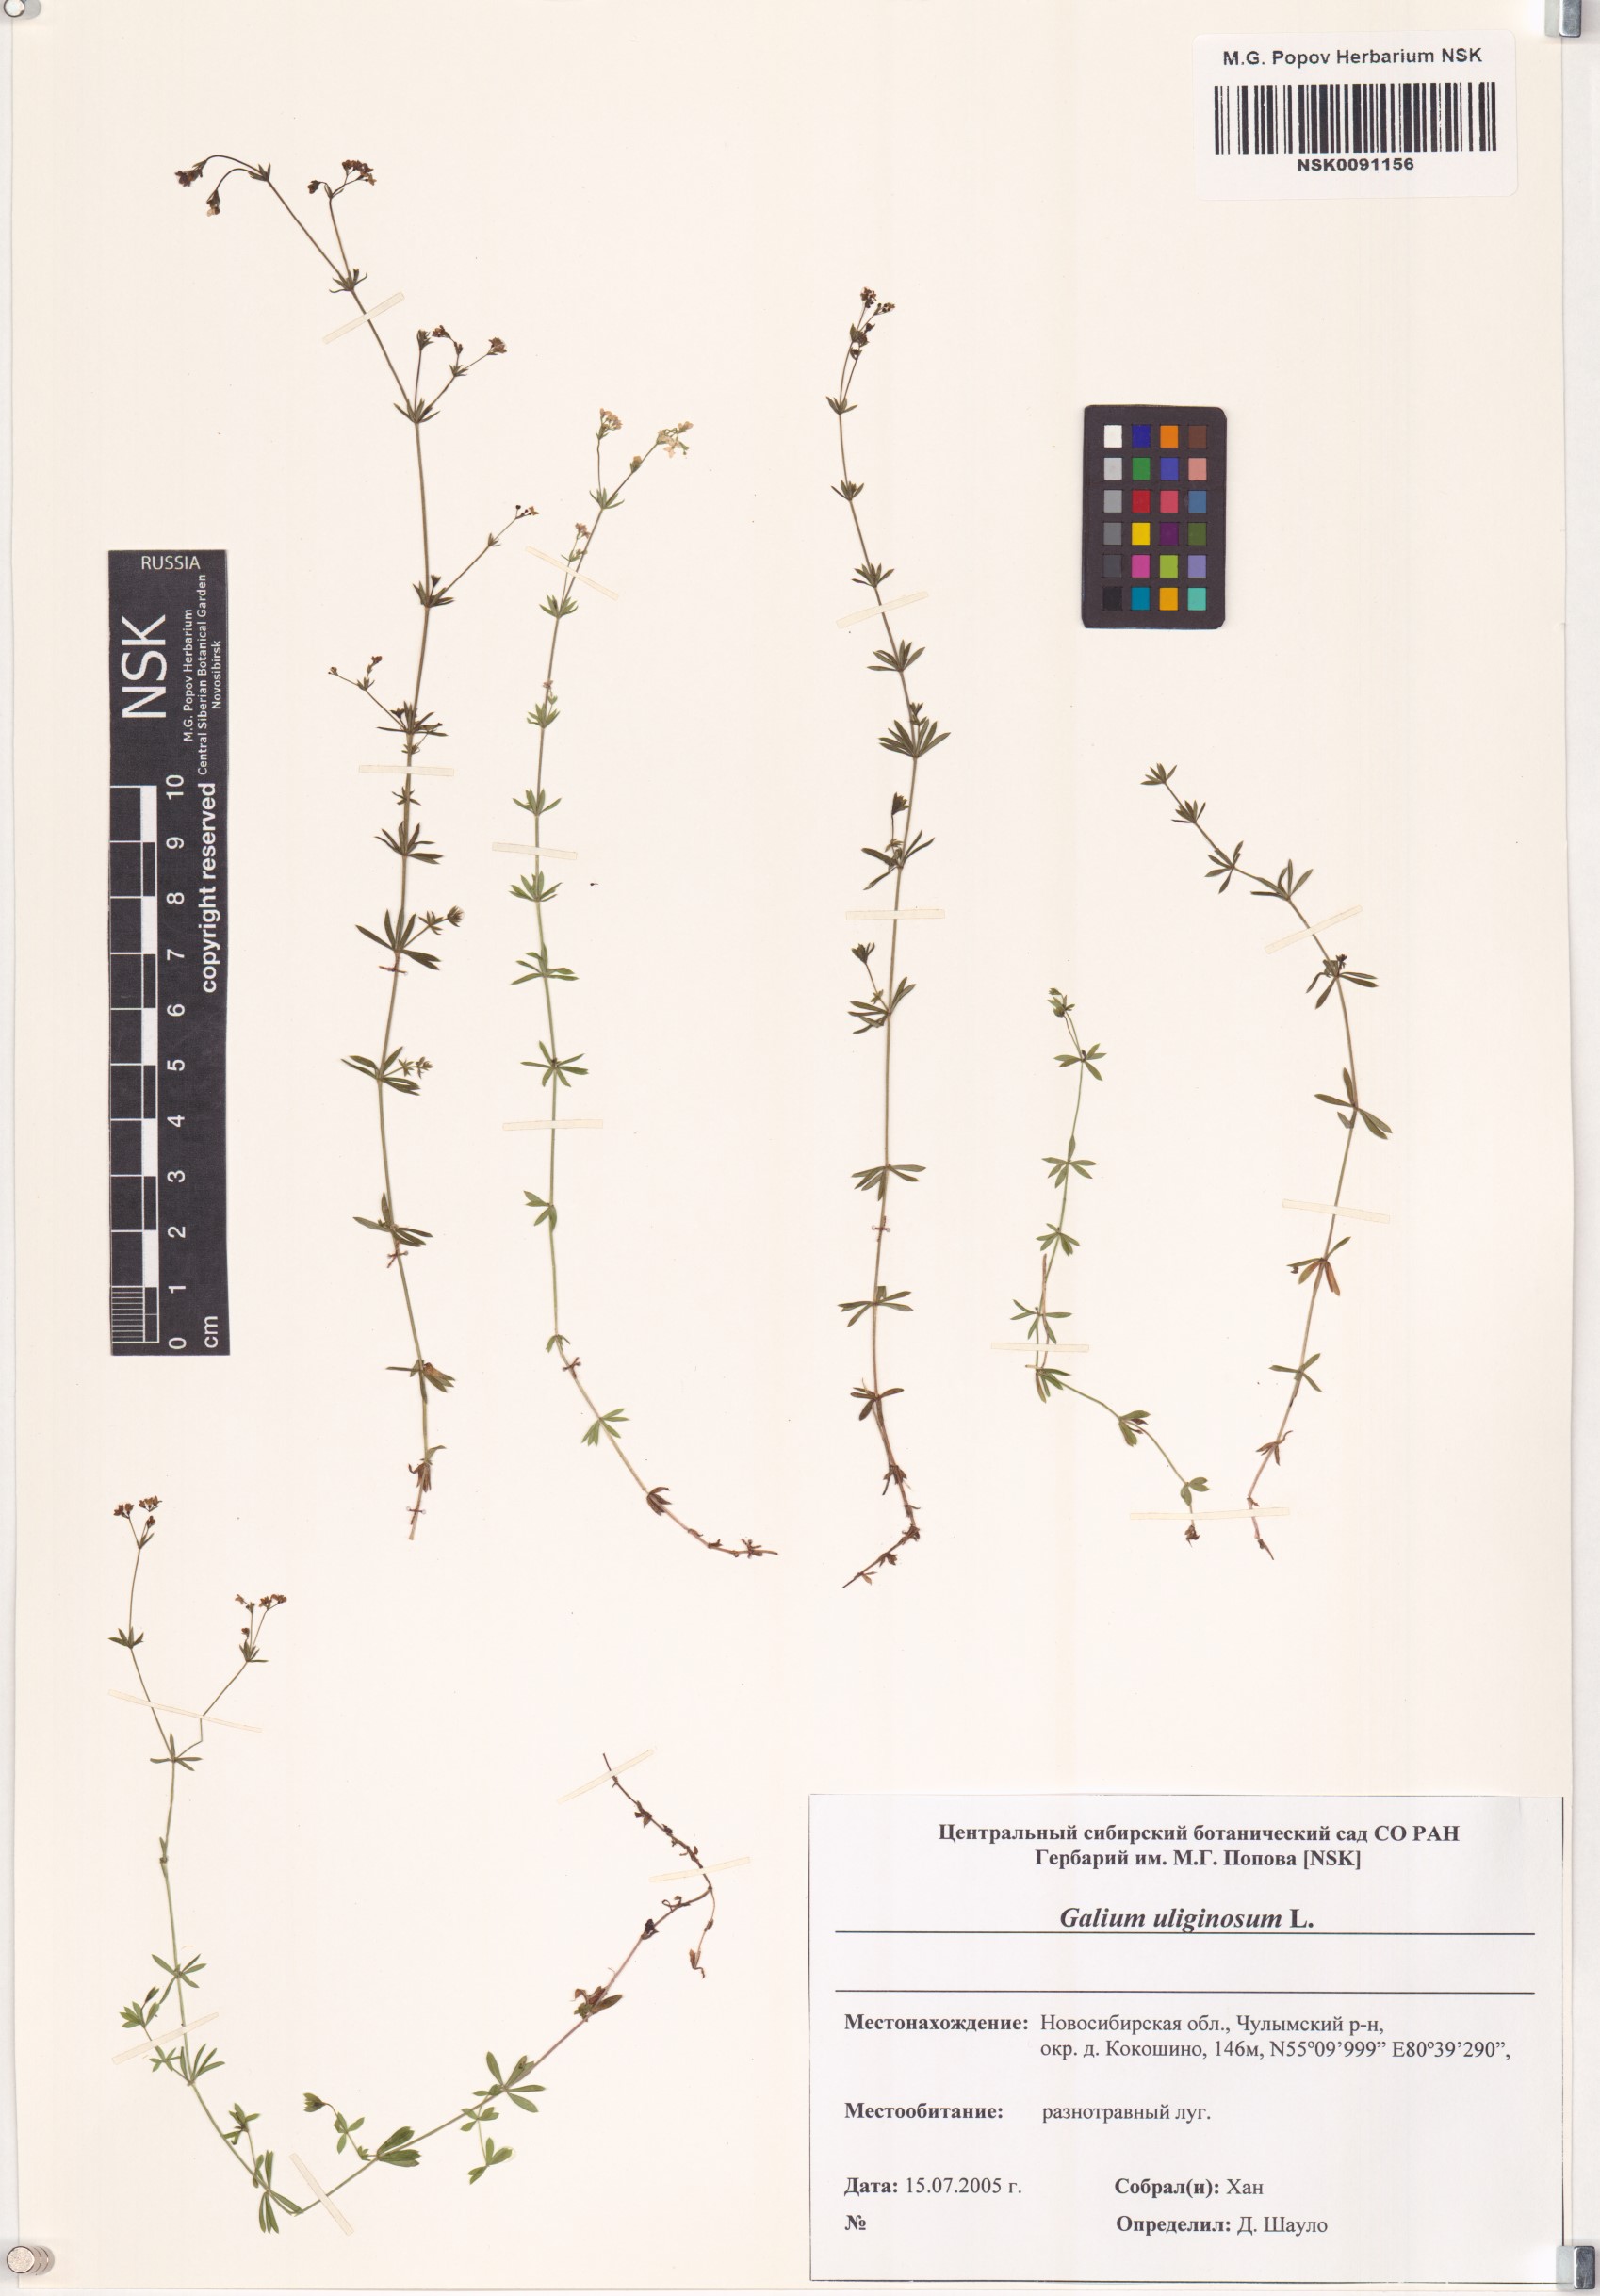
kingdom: Plantae
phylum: Tracheophyta
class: Magnoliopsida
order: Gentianales
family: Rubiaceae
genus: Galium
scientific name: Galium uliginosum
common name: Fen bedstraw
